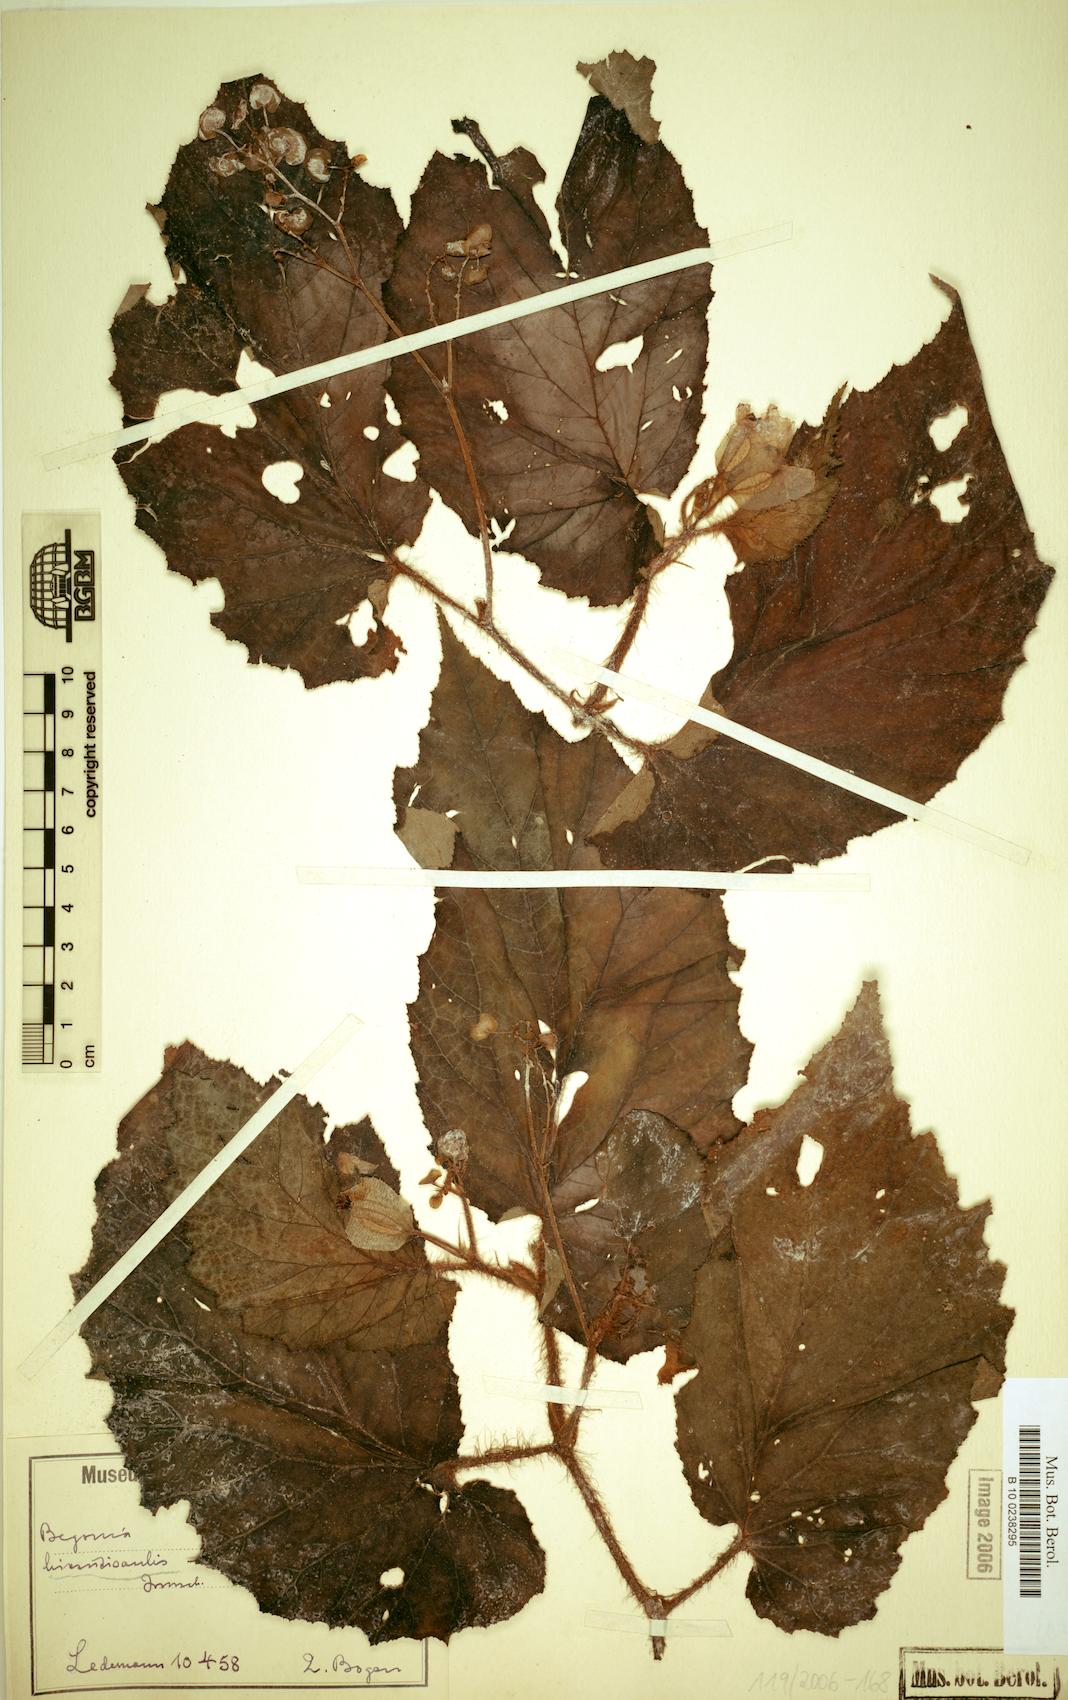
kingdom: Plantae
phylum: Tracheophyta
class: Magnoliopsida
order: Cucurbitales
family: Begoniaceae
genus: Begonia
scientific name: Begonia hirsuticaulis
